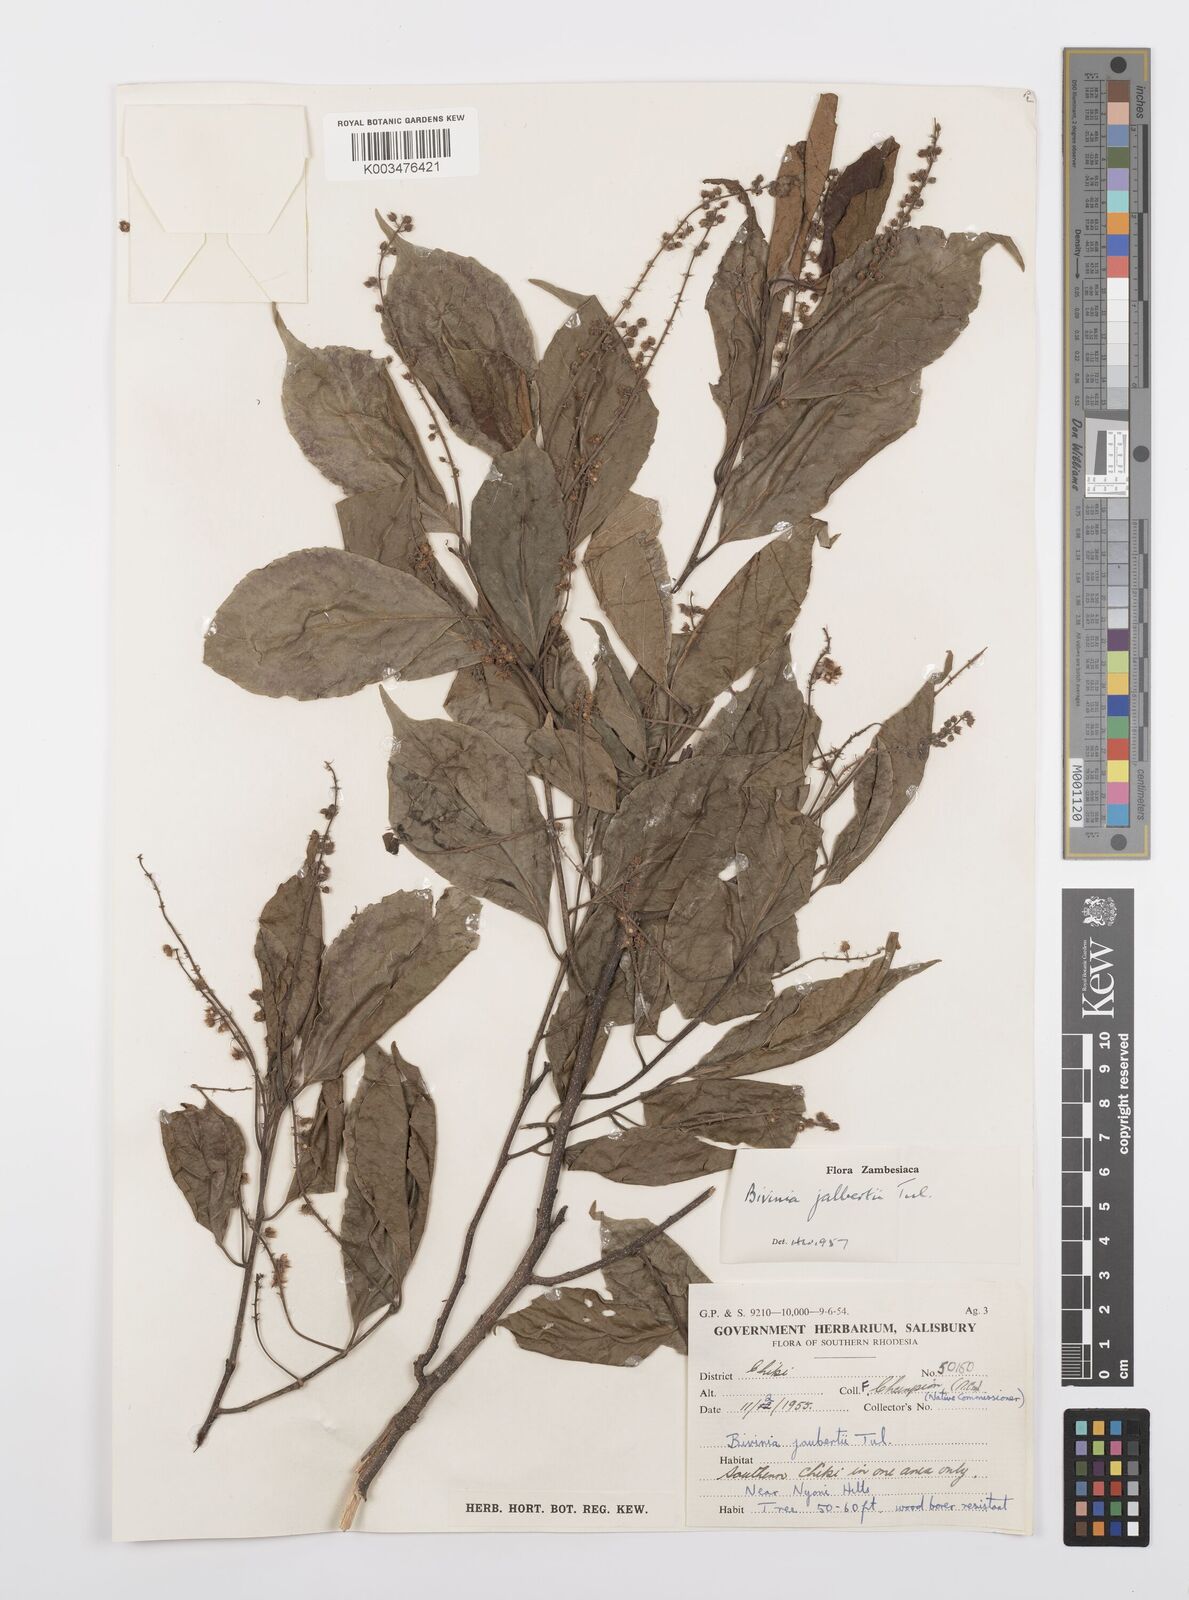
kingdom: Plantae
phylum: Tracheophyta
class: Magnoliopsida
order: Malpighiales
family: Salicaceae
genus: Bivinia
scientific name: Bivinia jalbertii
